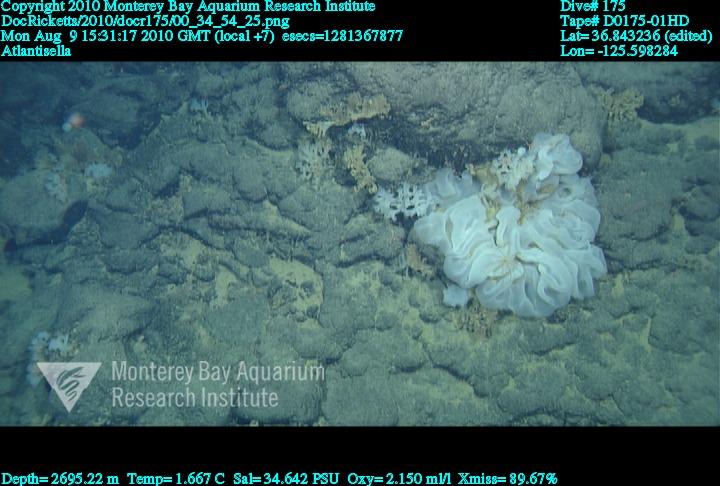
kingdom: Animalia
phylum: Porifera
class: Hexactinellida
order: Lyssacinosida
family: Euplectellidae
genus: Atlantisella
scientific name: Atlantisella
